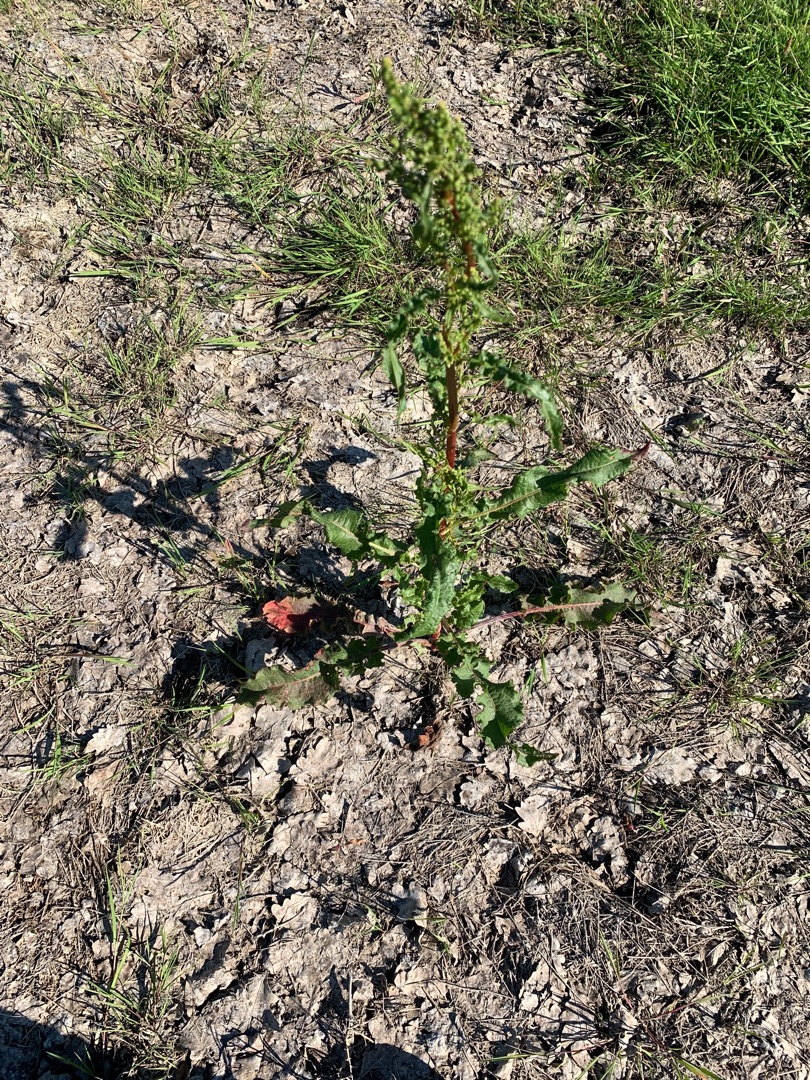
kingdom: Plantae
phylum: Tracheophyta
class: Magnoliopsida
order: Caryophyllales
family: Polygonaceae
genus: Rumex
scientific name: Rumex crispus
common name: Kruset skræppe
